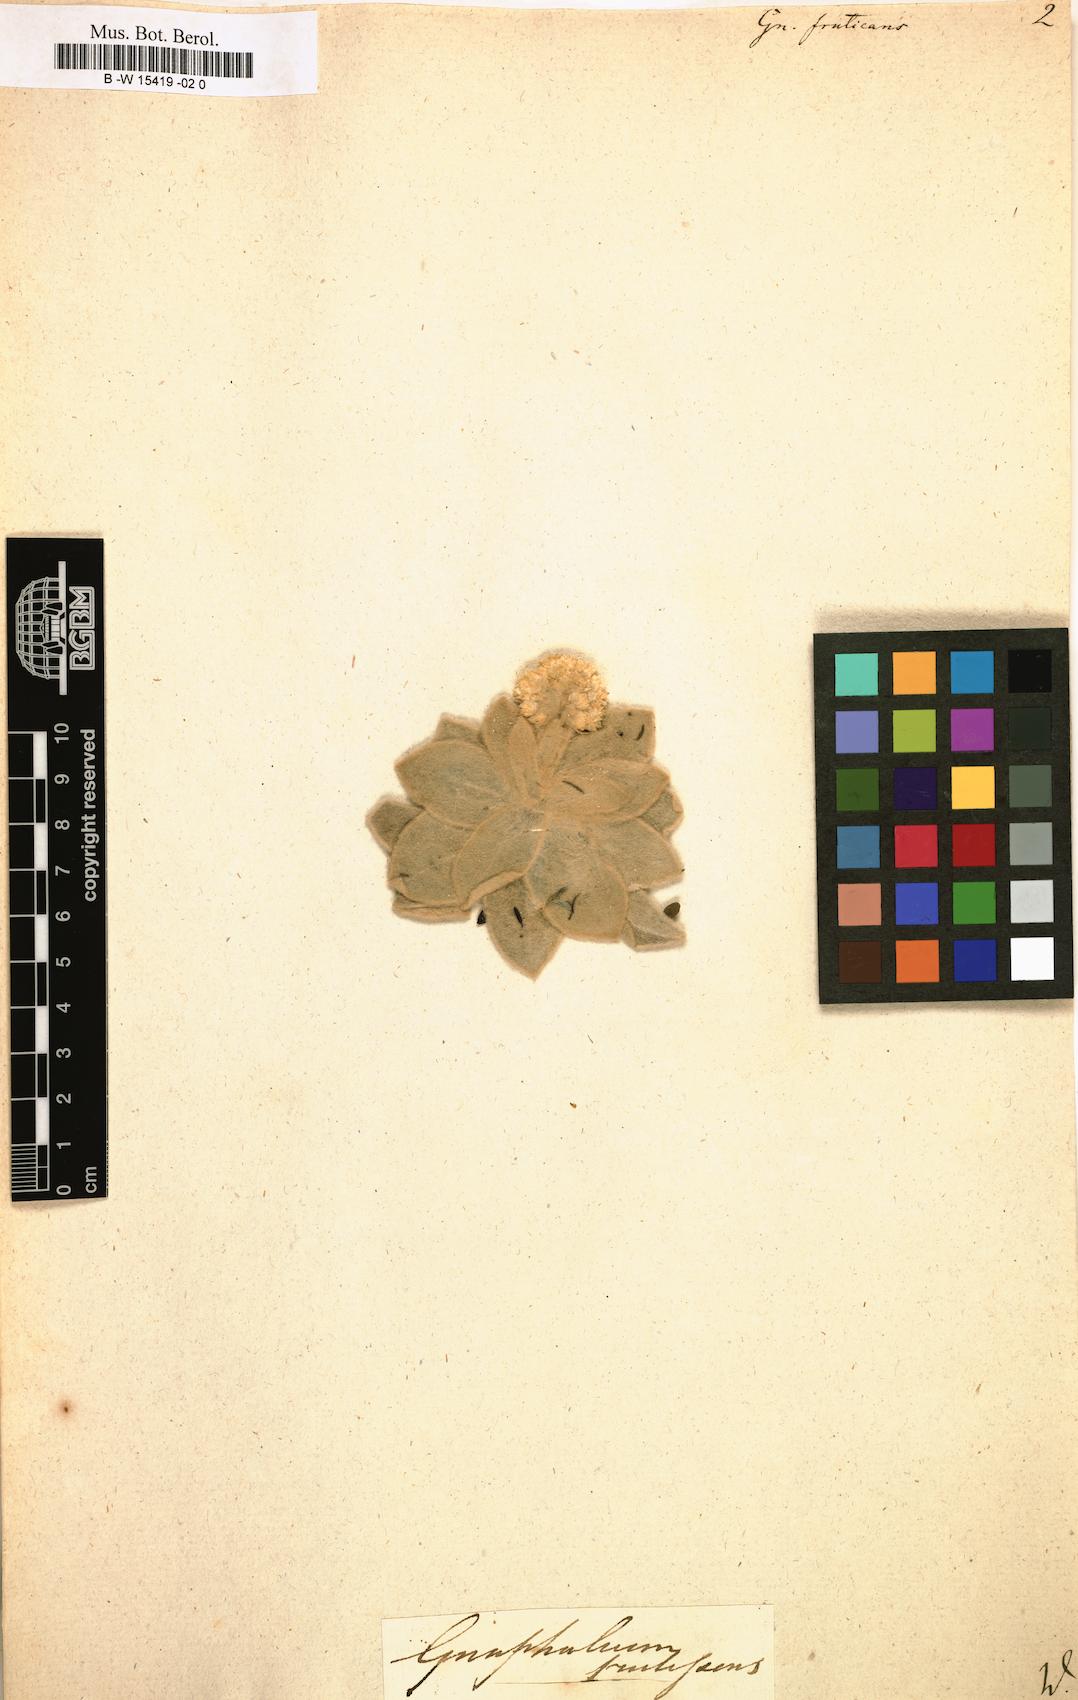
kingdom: Plantae
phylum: Tracheophyta
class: Magnoliopsida
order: Asterales
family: Asteraceae
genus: Helichrysum
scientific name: Helichrysum fruticans
